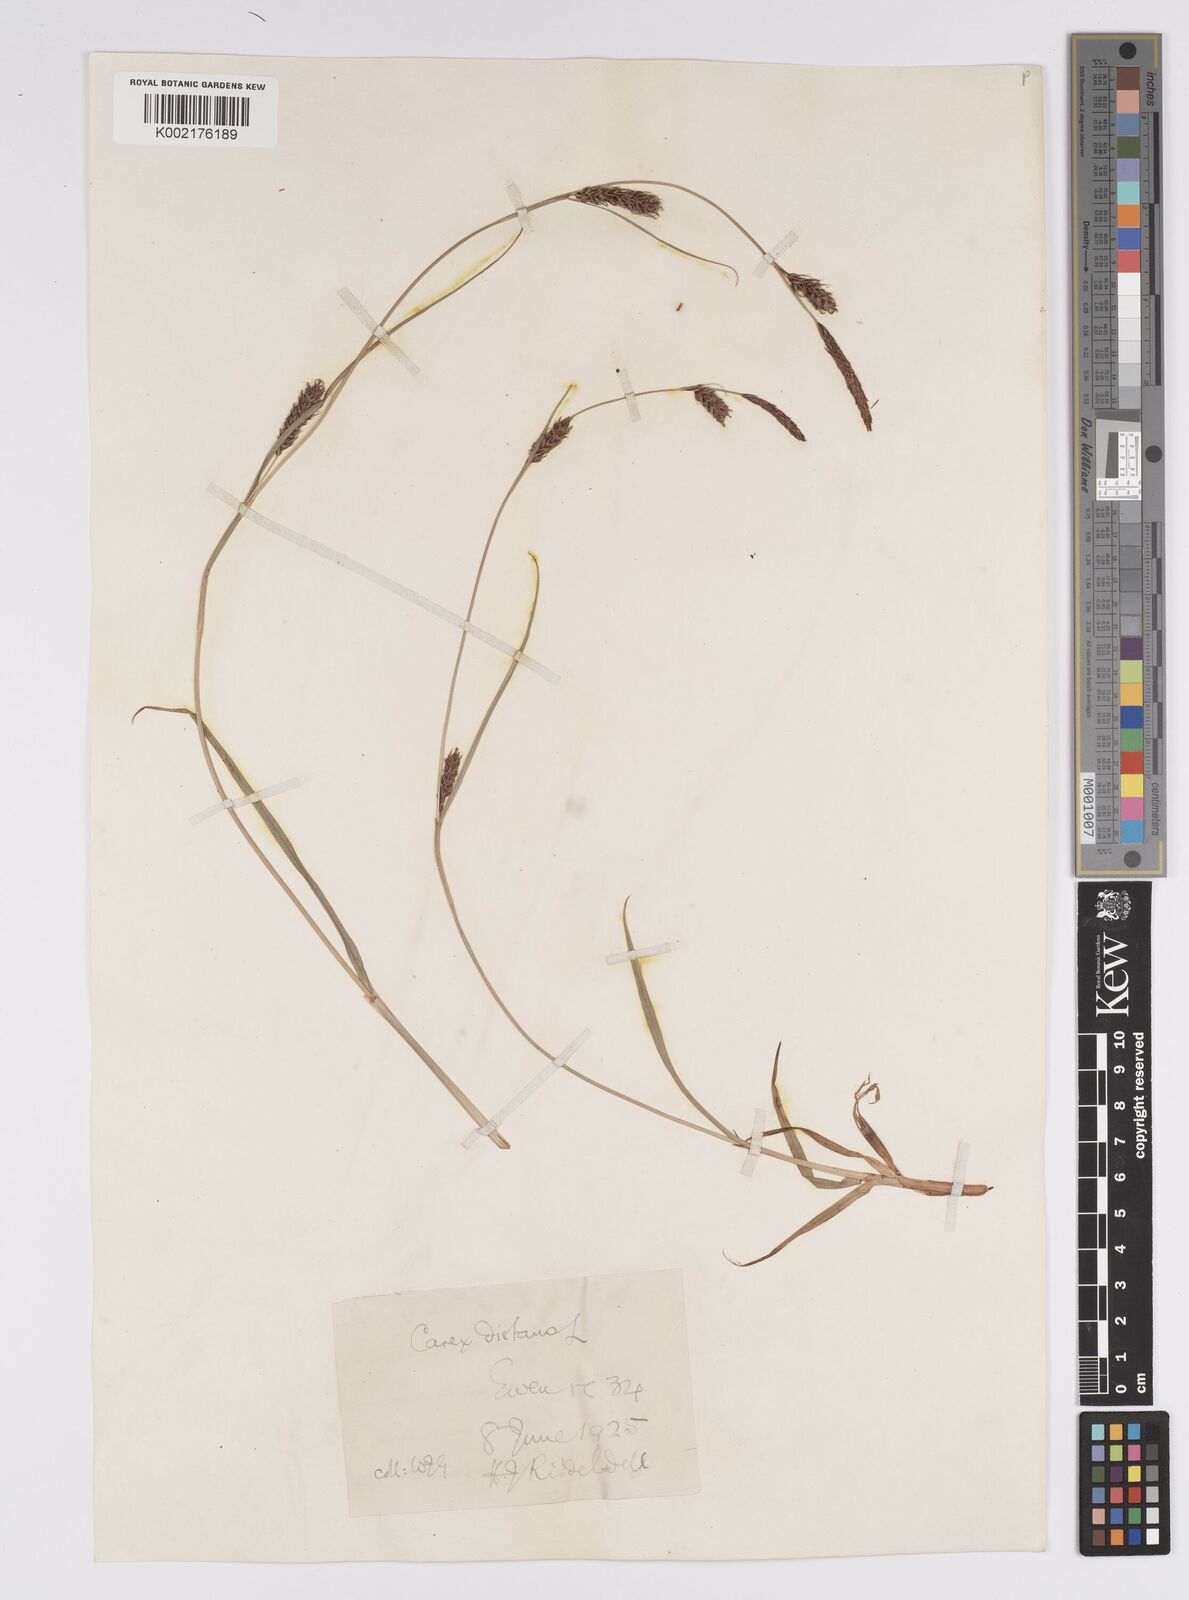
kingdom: Plantae
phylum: Tracheophyta
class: Liliopsida
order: Poales
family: Cyperaceae
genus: Carex
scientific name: Carex distans
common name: Distant sedge
